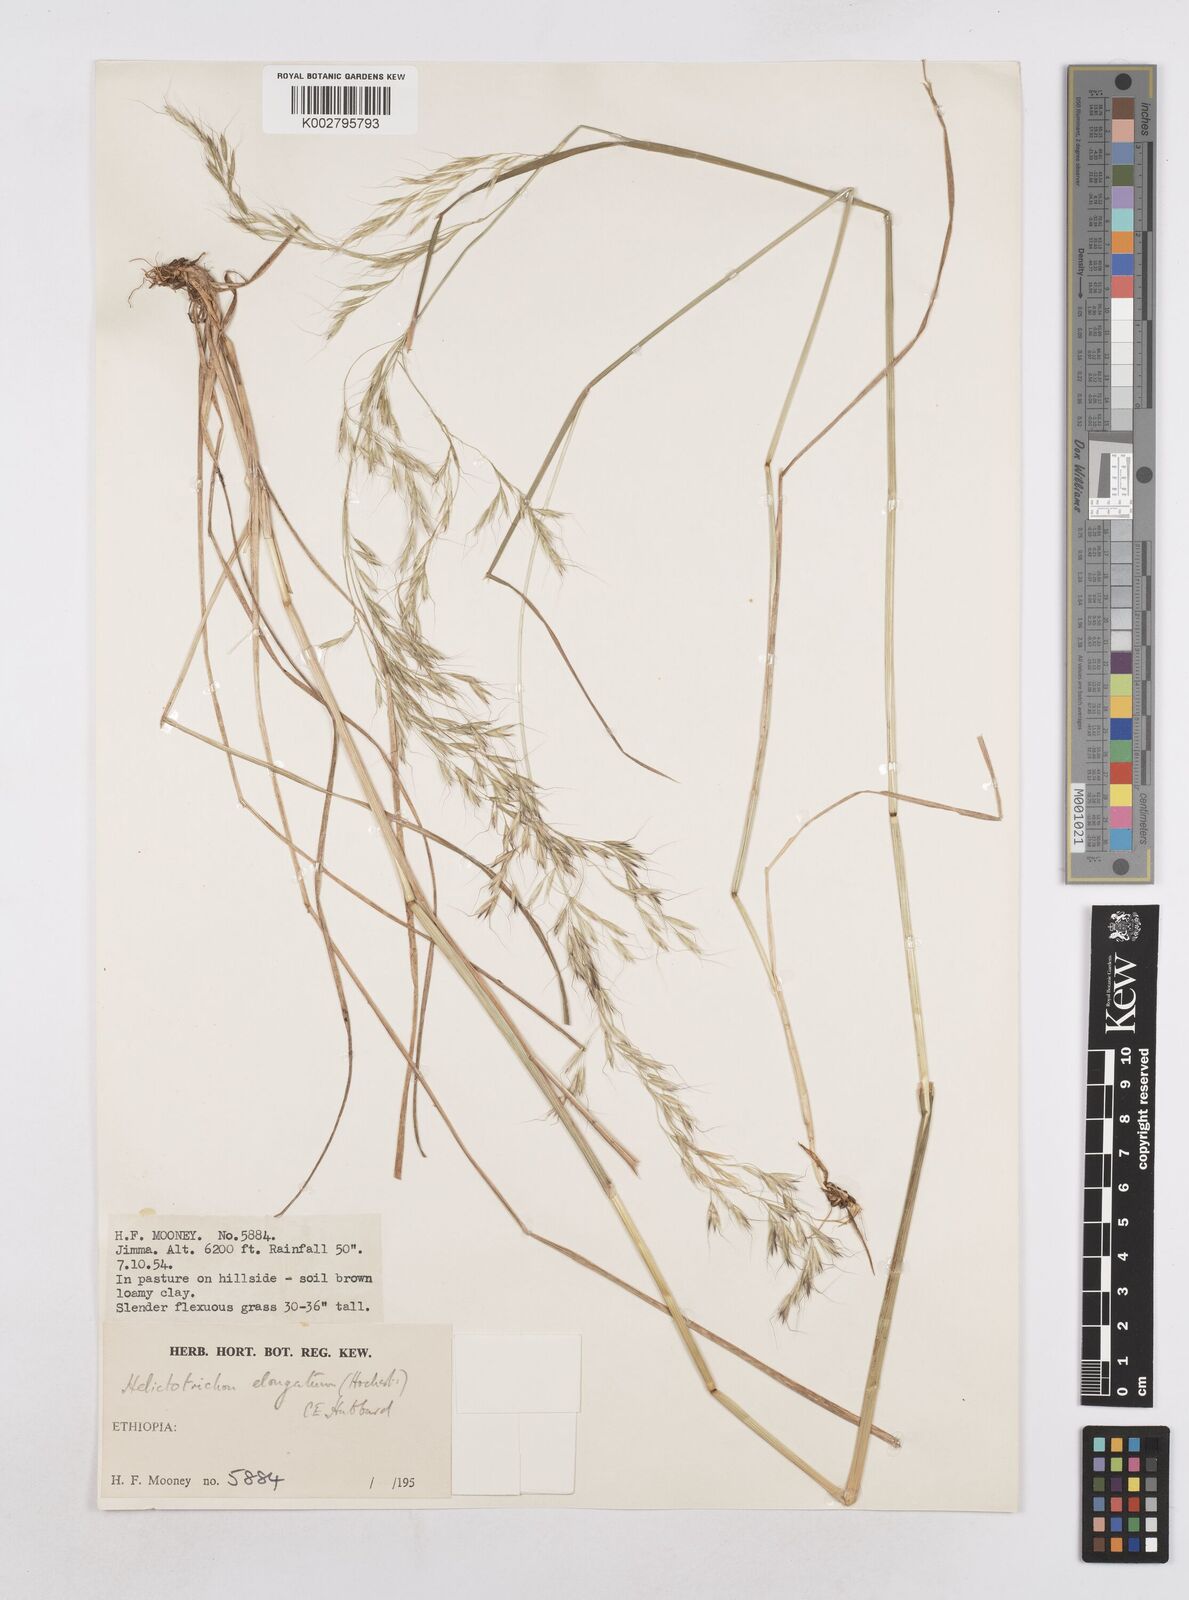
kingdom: Plantae
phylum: Tracheophyta
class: Liliopsida
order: Poales
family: Poaceae
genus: Trisetopsis
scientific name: Trisetopsis elongata
